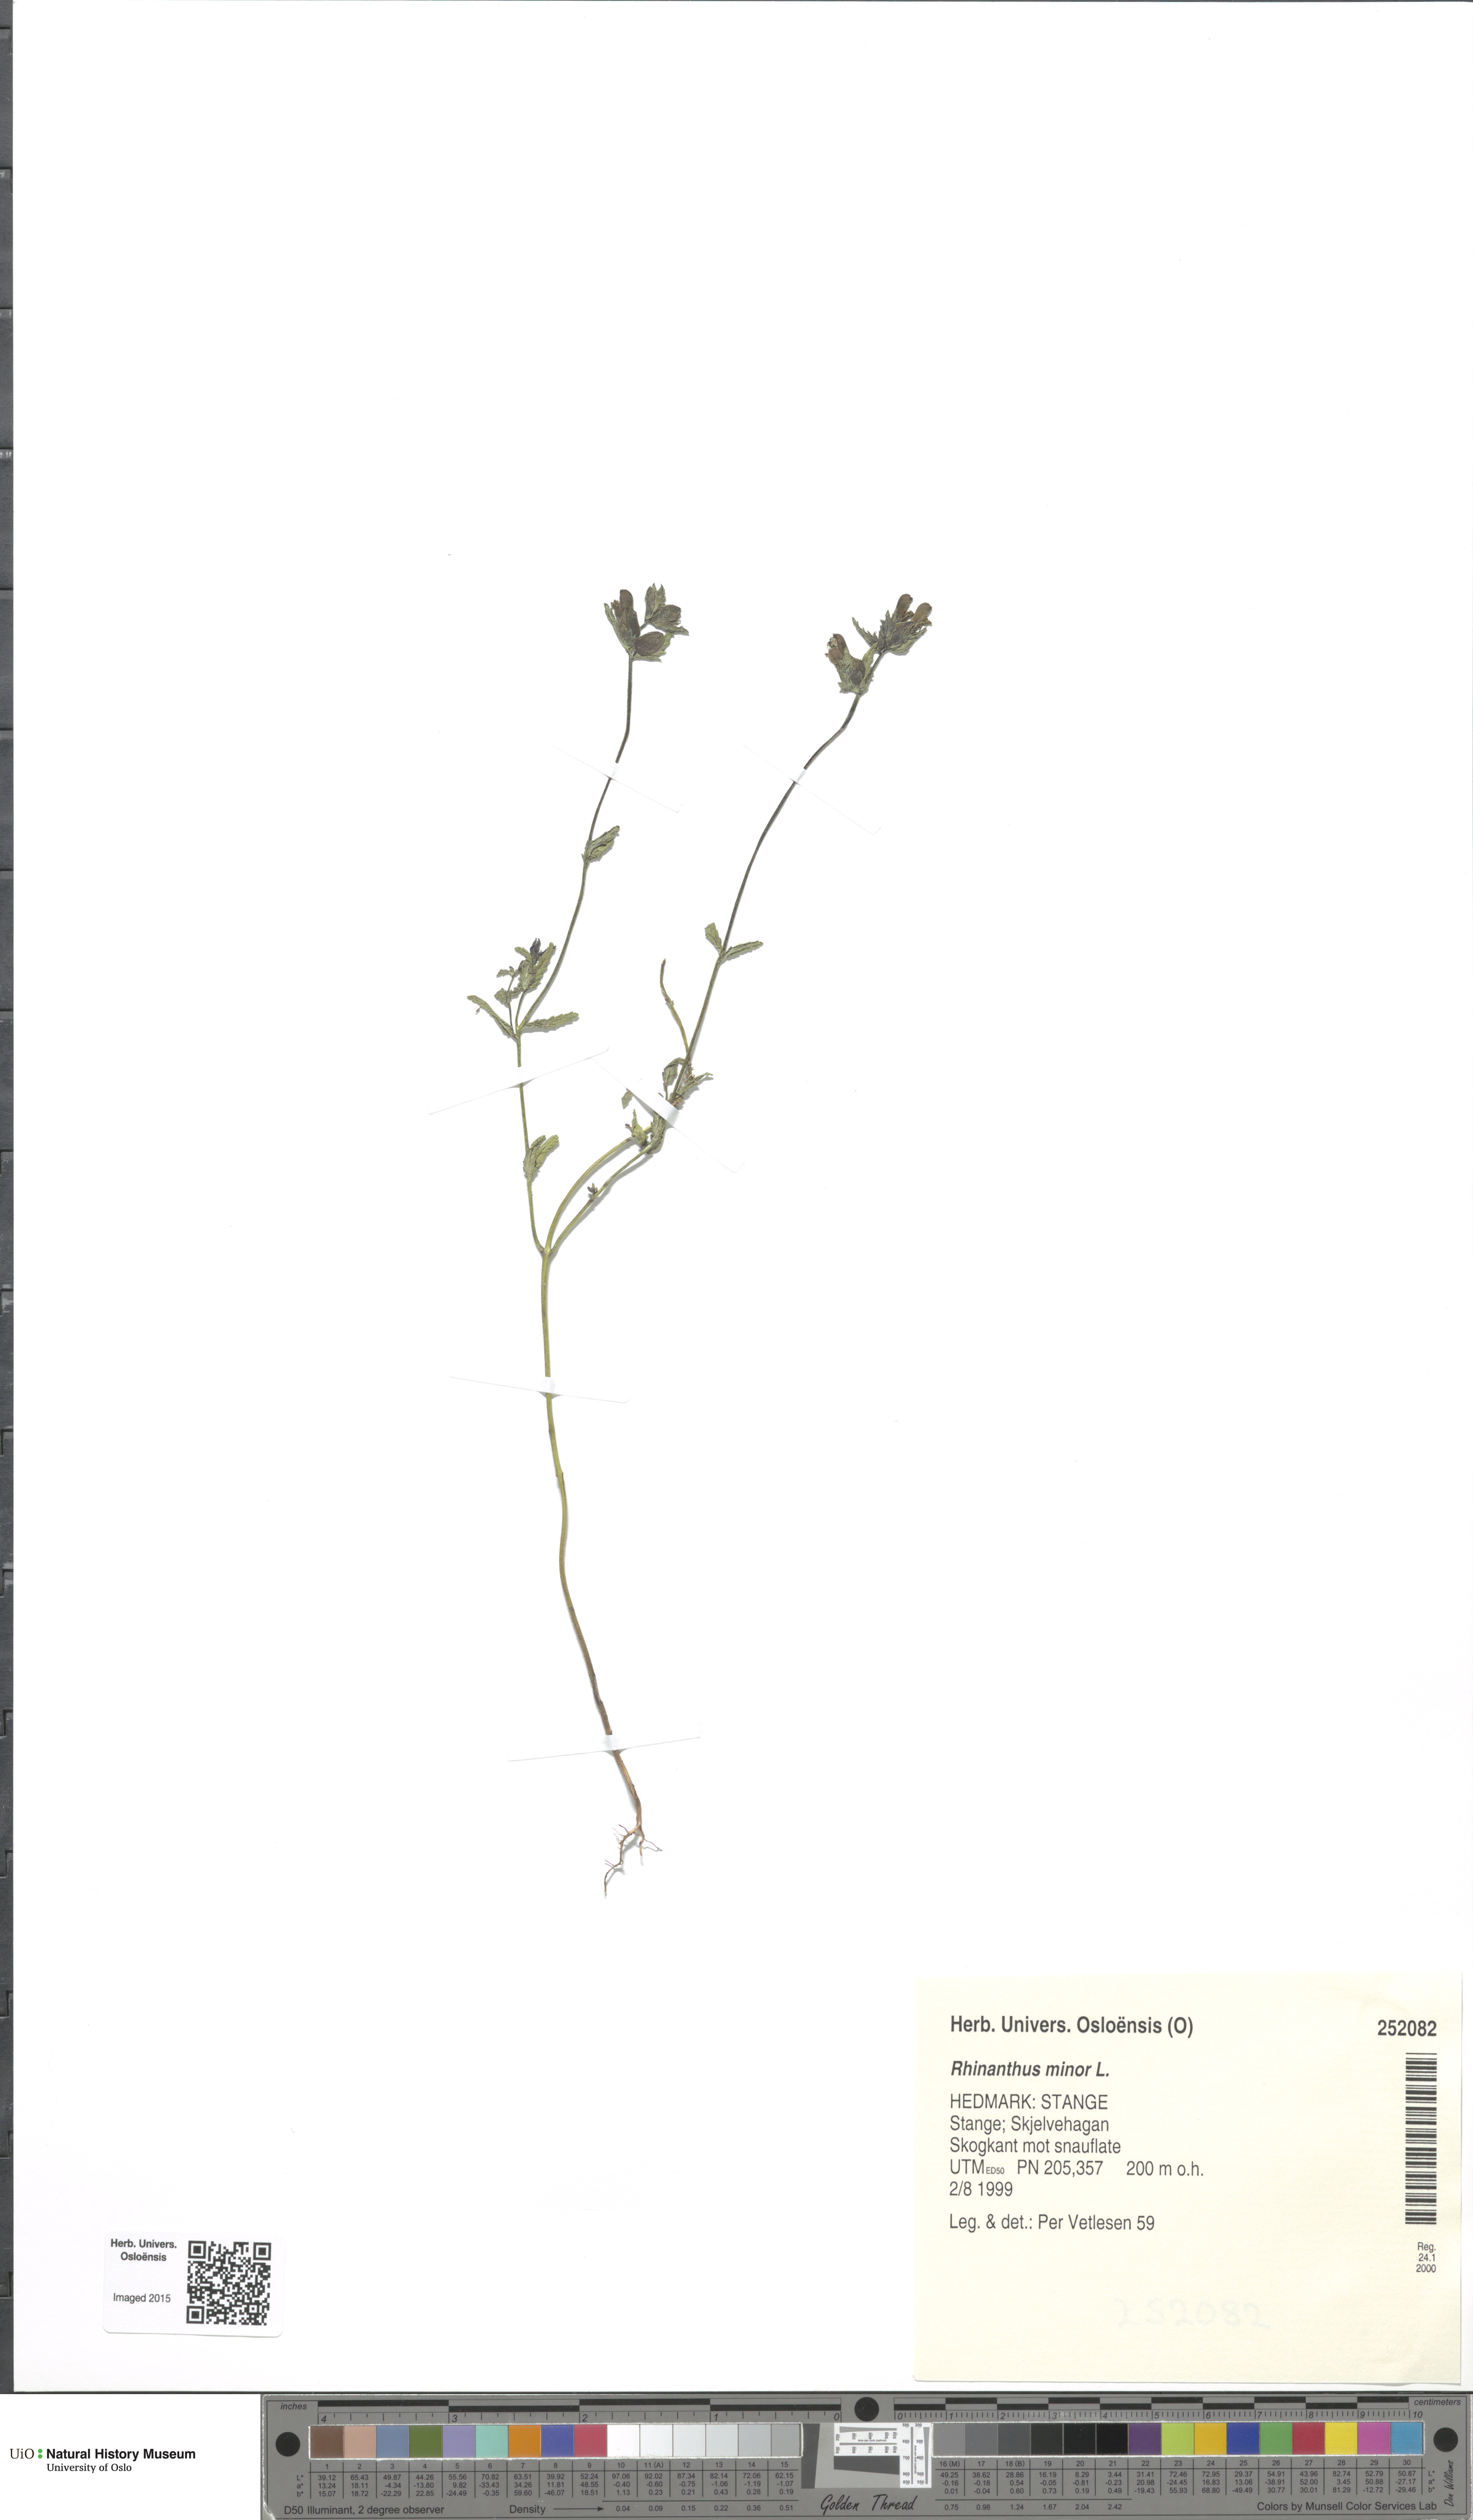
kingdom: Plantae
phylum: Tracheophyta
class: Magnoliopsida
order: Lamiales
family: Orobanchaceae
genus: Rhinanthus
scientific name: Rhinanthus minor
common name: Yellow-rattle
